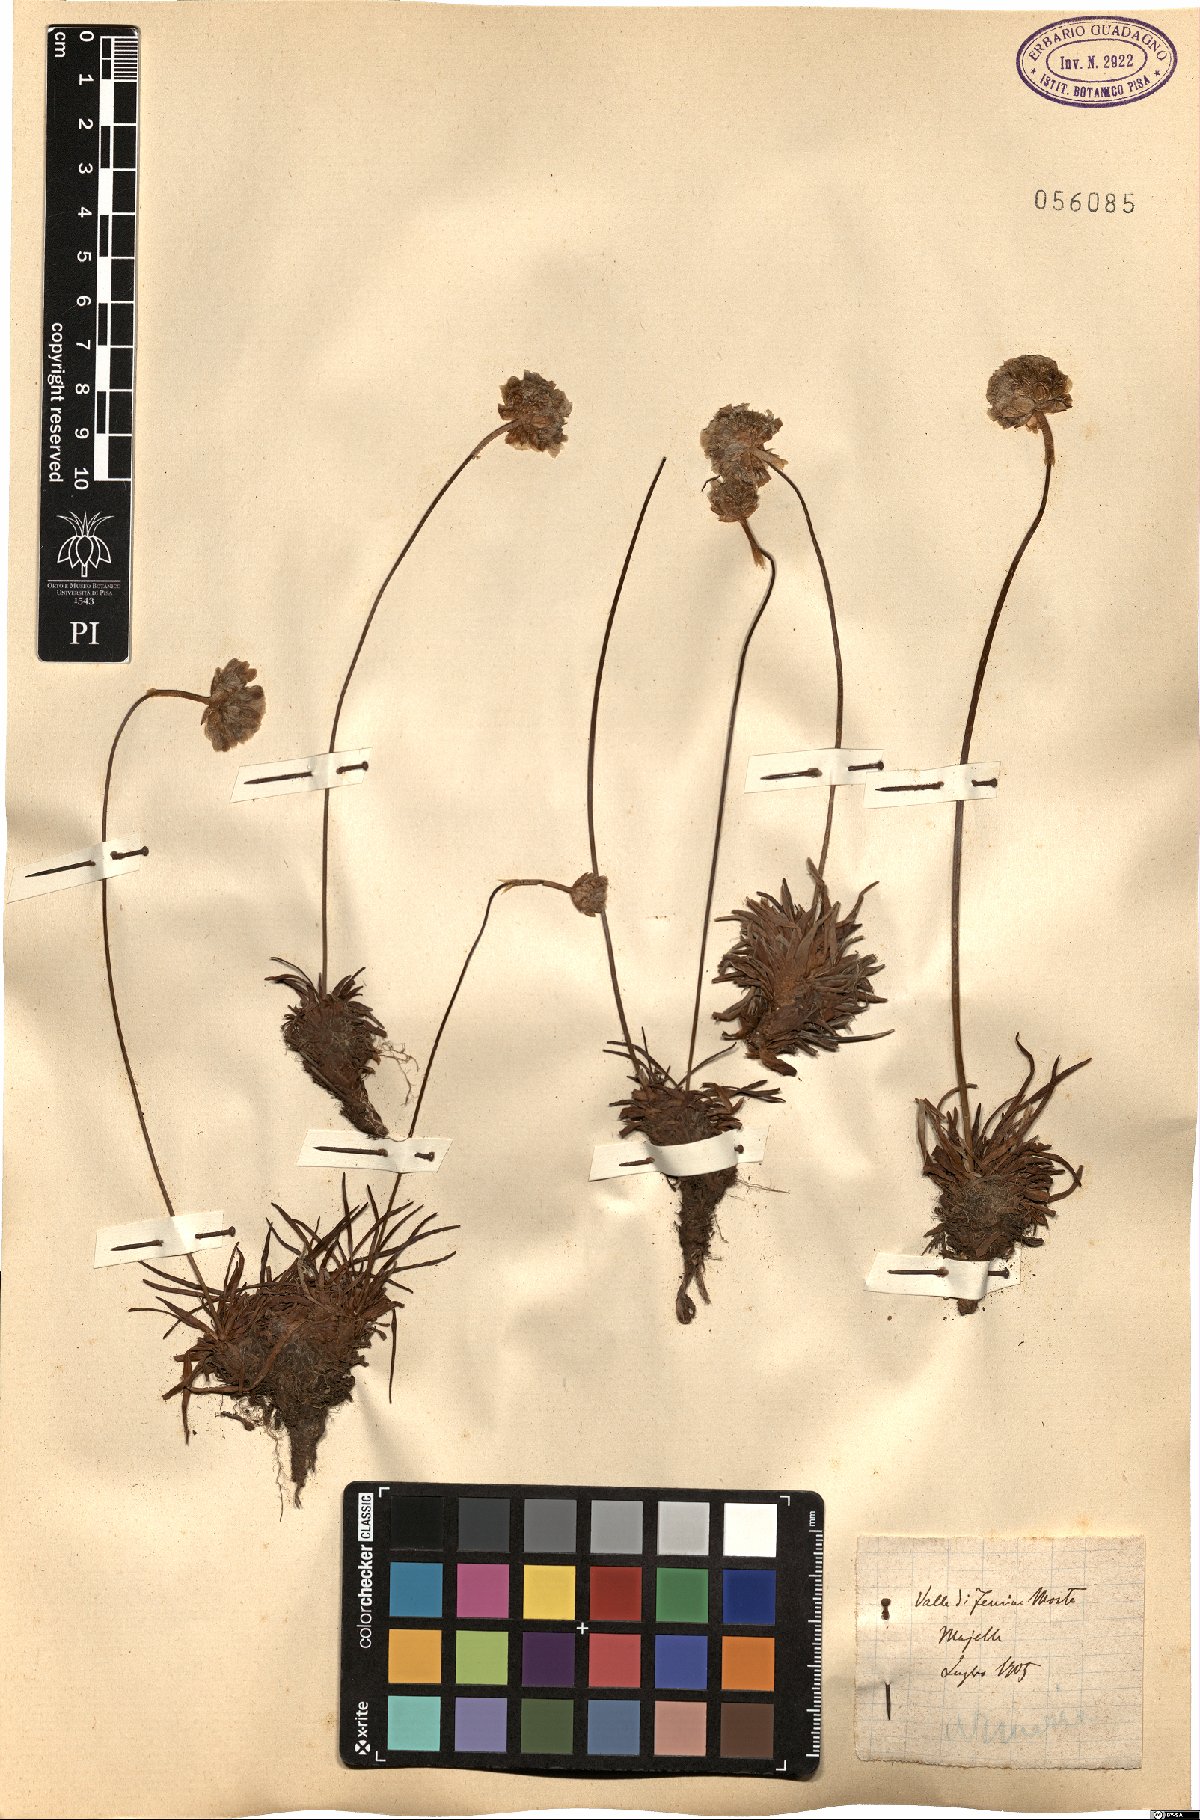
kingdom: Plantae
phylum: Tracheophyta
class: Magnoliopsida
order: Caryophyllales
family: Plumbaginaceae
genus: Armeria
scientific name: Armeria
